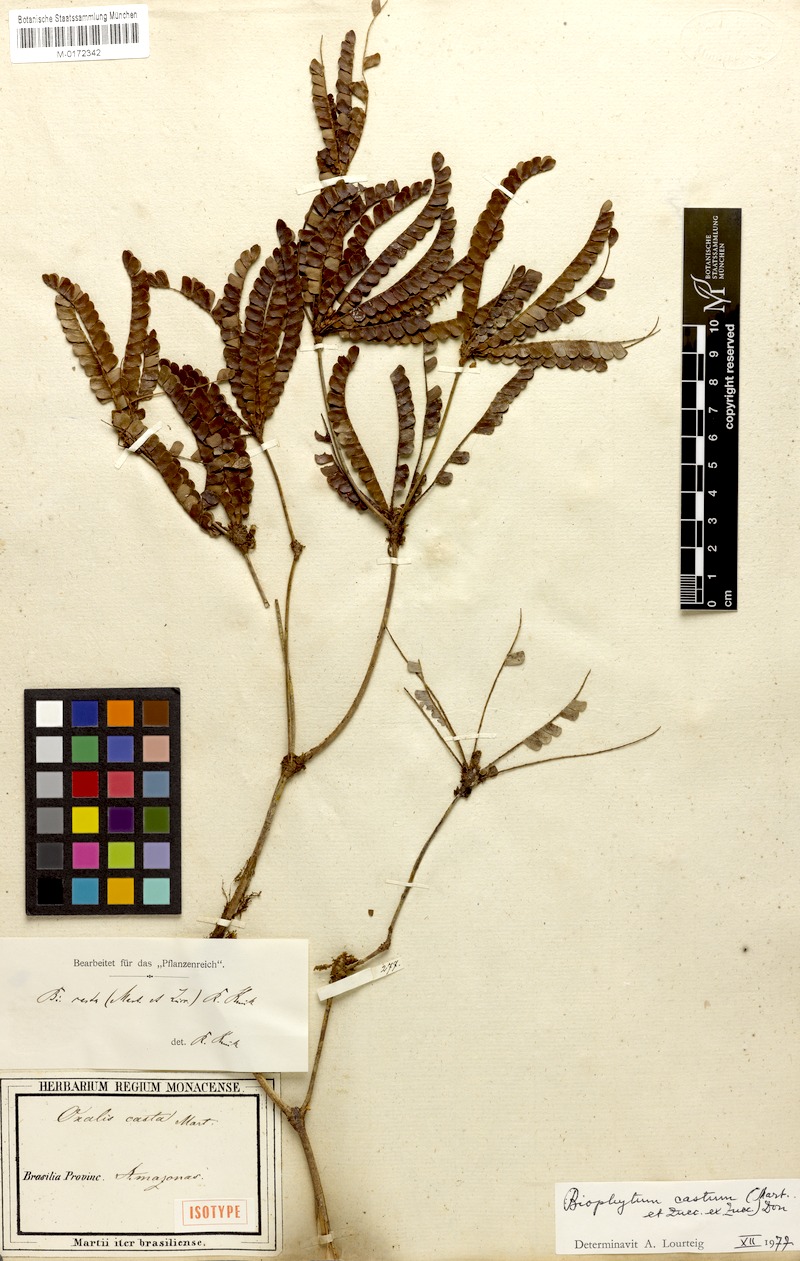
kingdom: Plantae
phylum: Tracheophyta
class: Magnoliopsida
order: Oxalidales
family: Oxalidaceae
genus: Biophytum
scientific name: Biophytum castum
